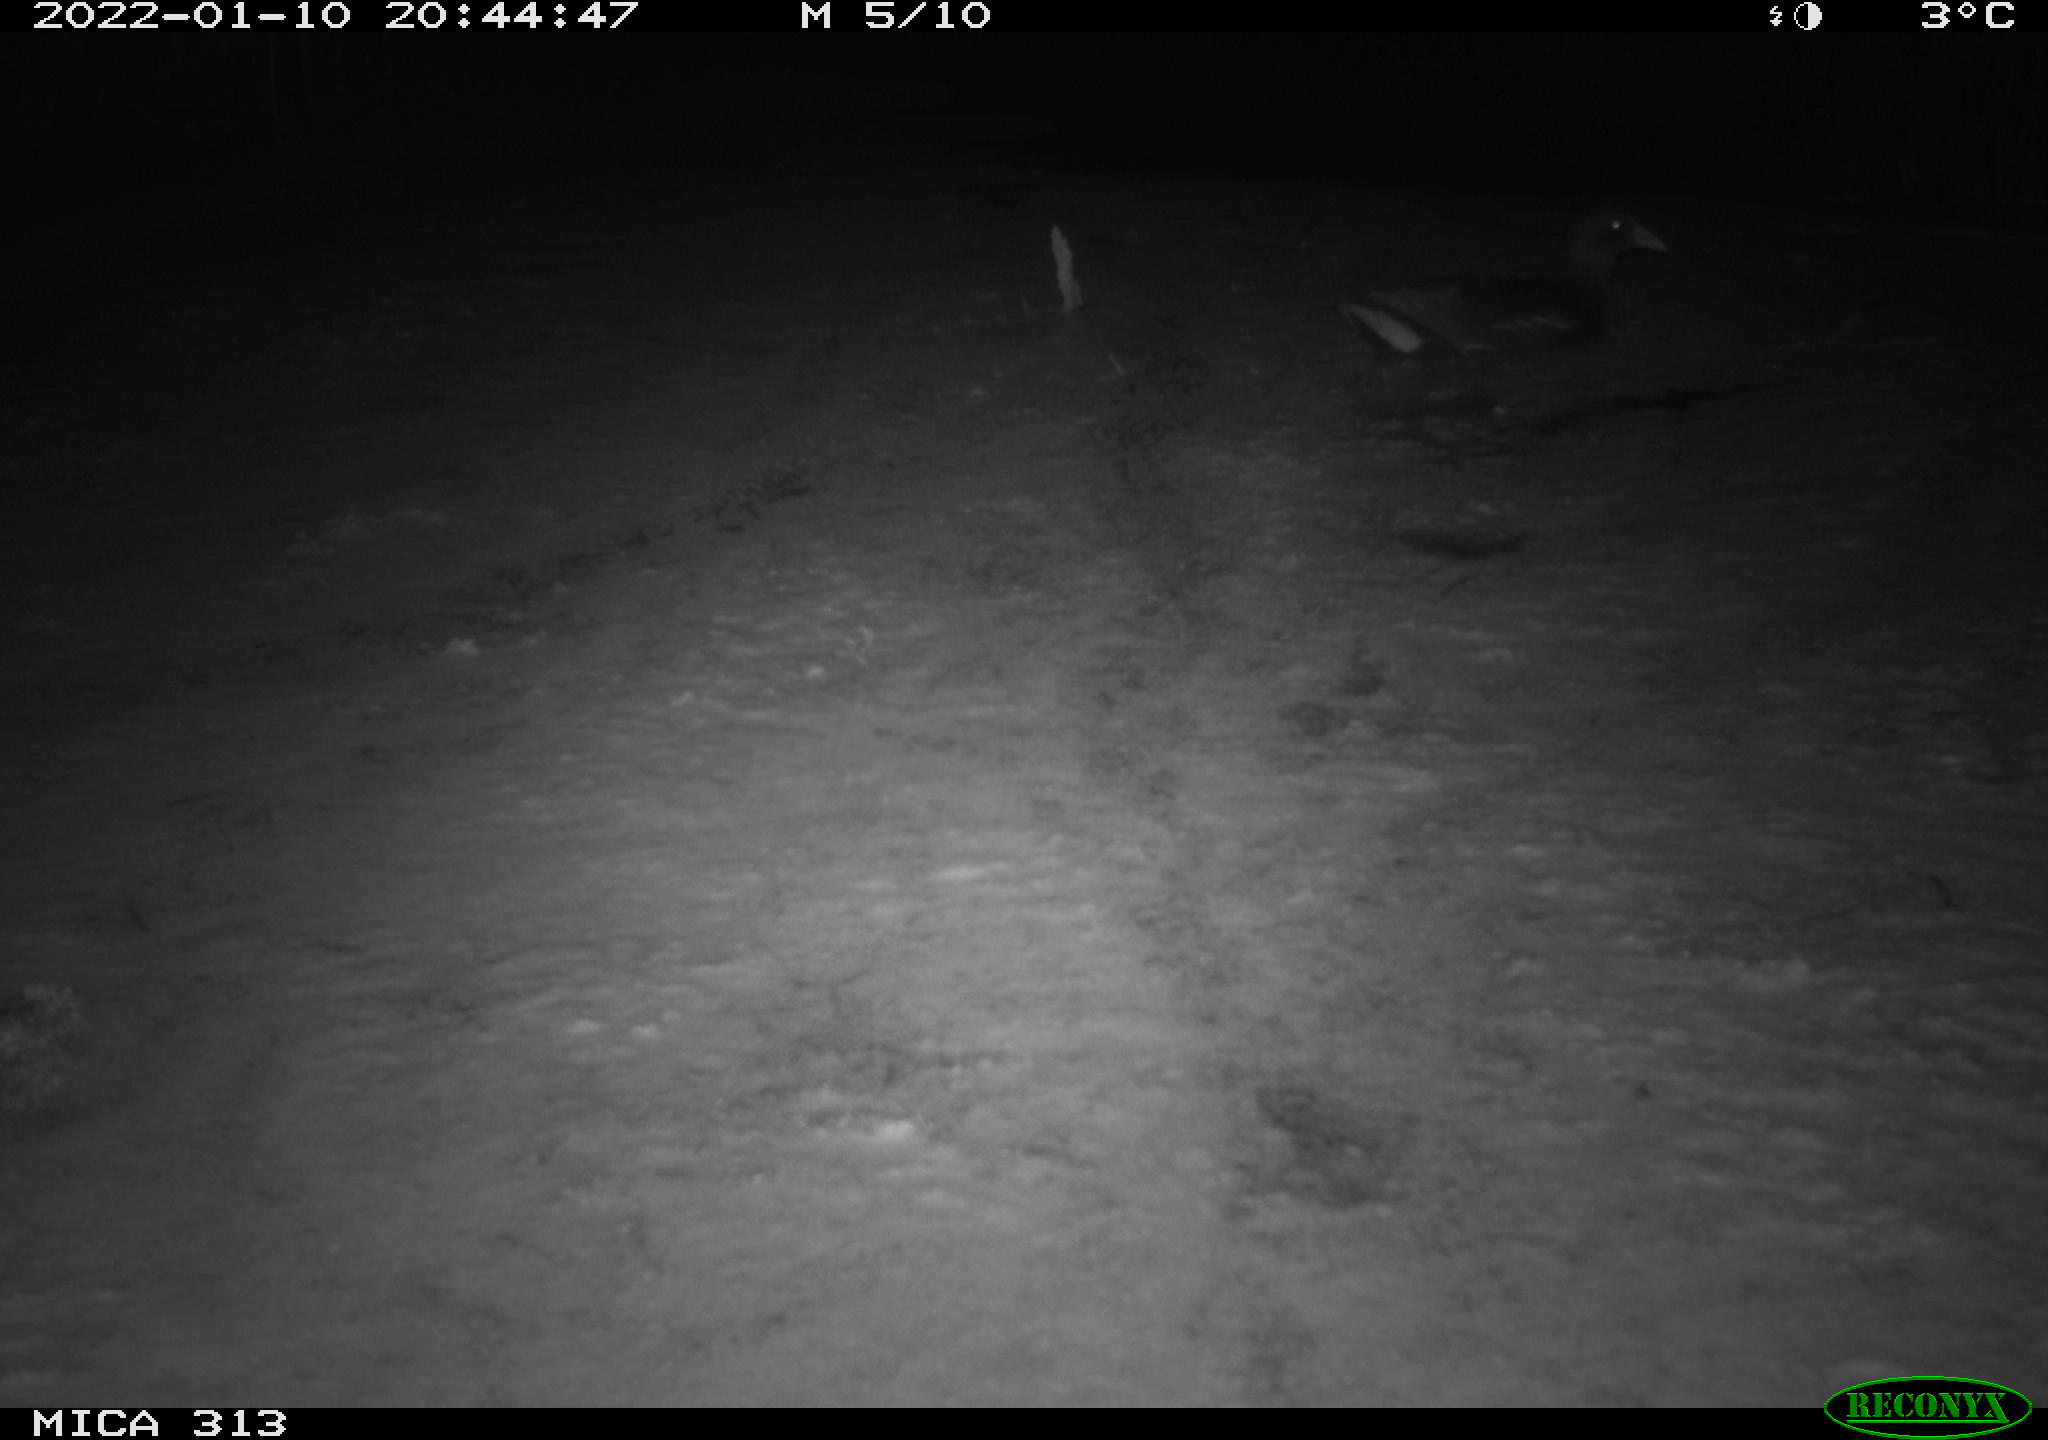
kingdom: Animalia
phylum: Chordata
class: Aves
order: Gruiformes
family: Rallidae
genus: Gallinula
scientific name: Gallinula chloropus
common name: Common moorhen
